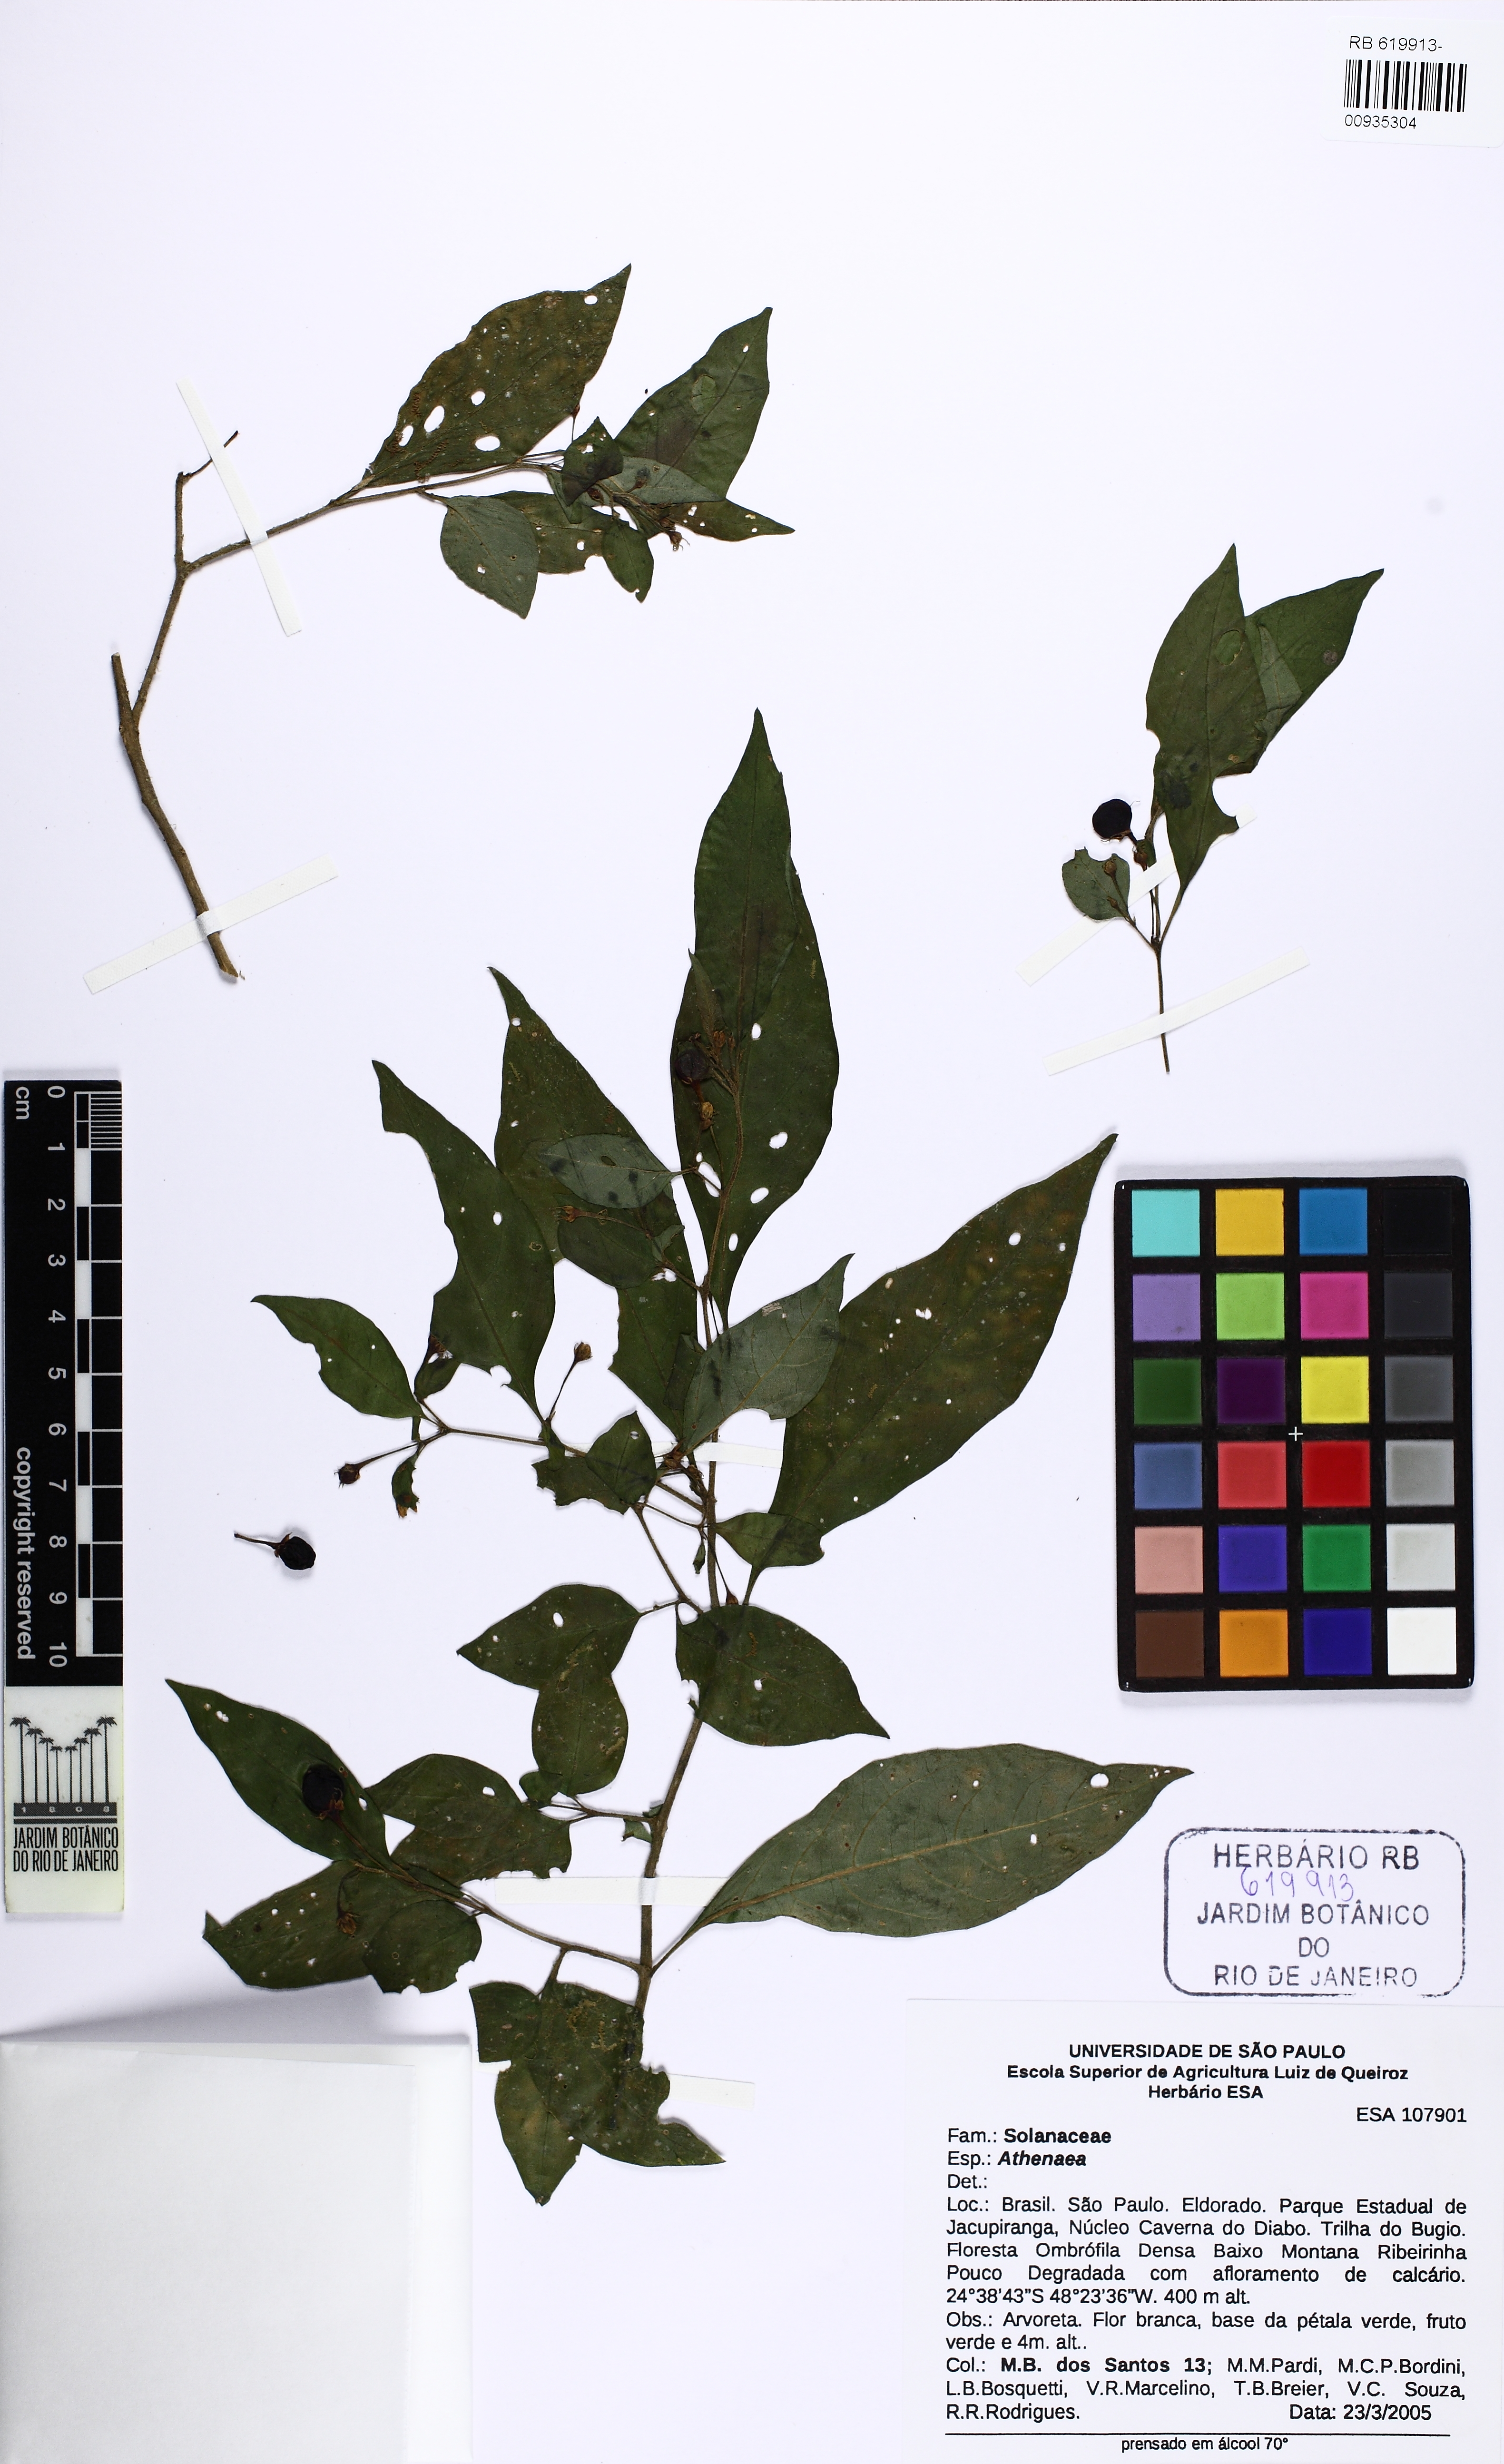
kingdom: Plantae
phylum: Tracheophyta
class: Magnoliopsida
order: Solanales
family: Solanaceae
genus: Athenaea
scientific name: Athenaea
